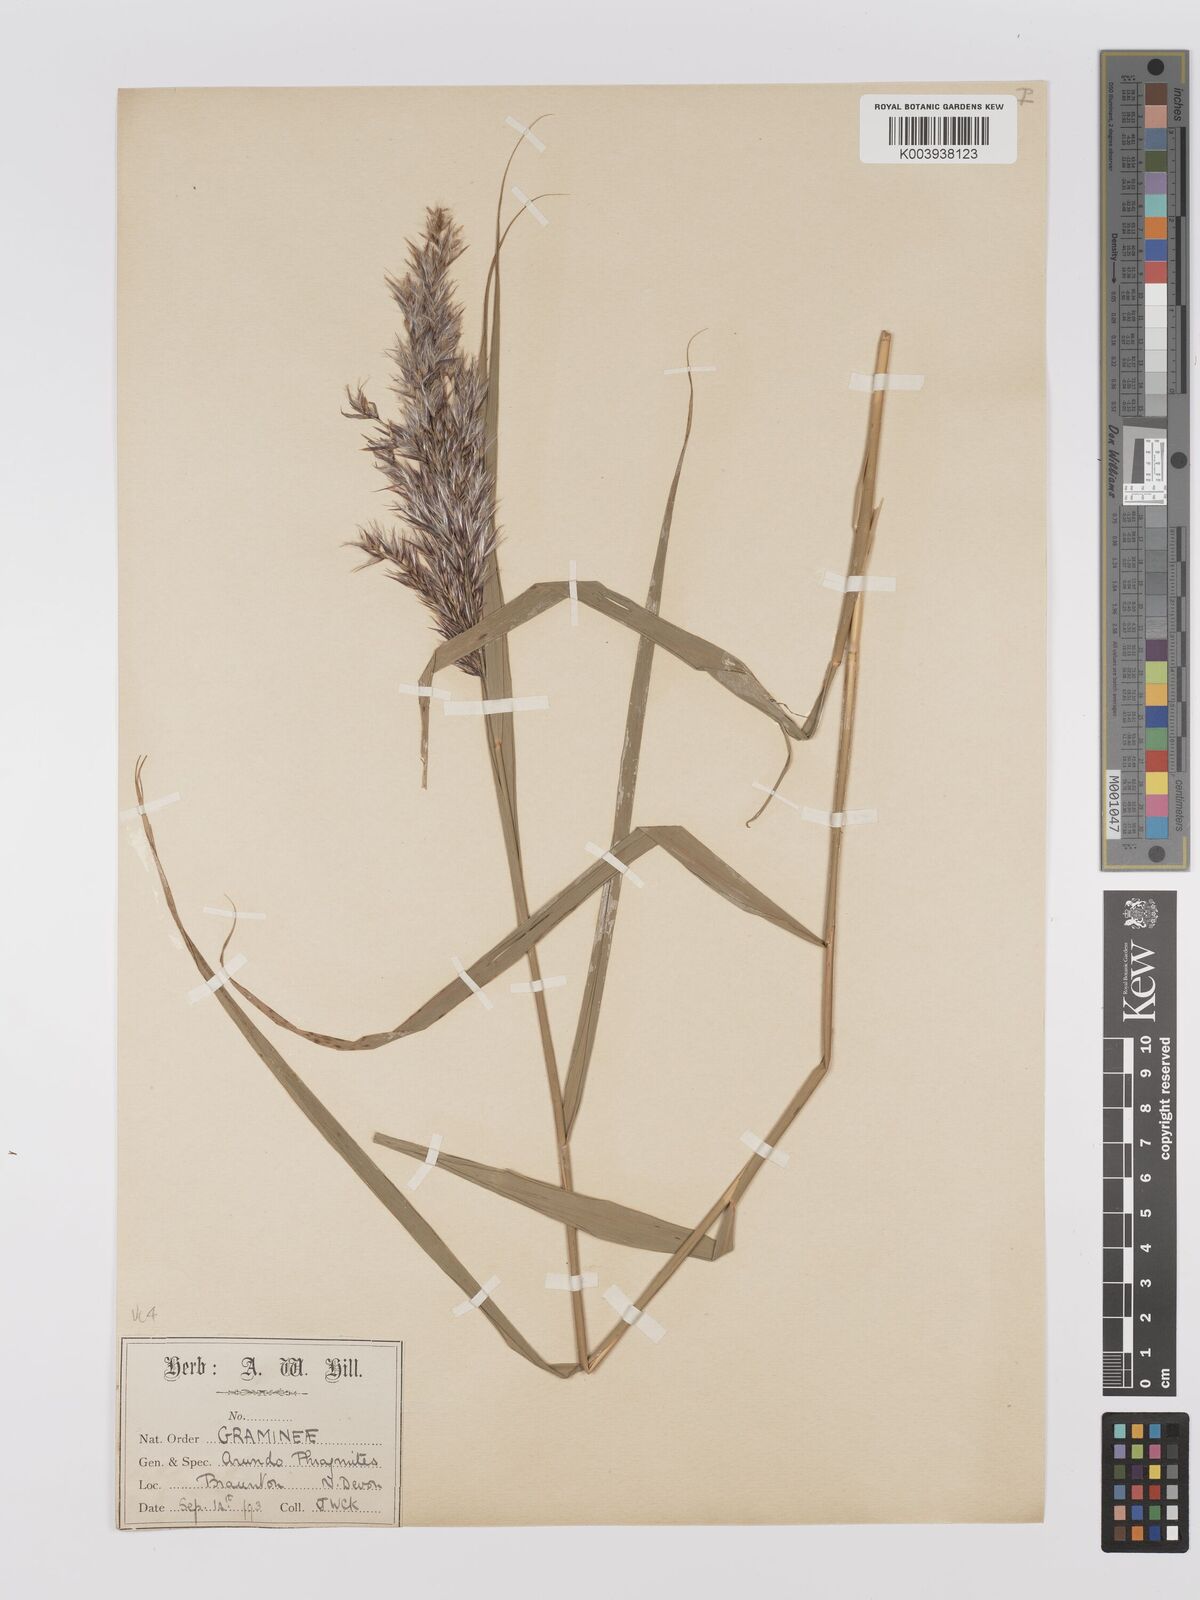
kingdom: Plantae
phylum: Tracheophyta
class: Liliopsida
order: Poales
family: Poaceae
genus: Phragmites
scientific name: Phragmites australis
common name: Common reed
